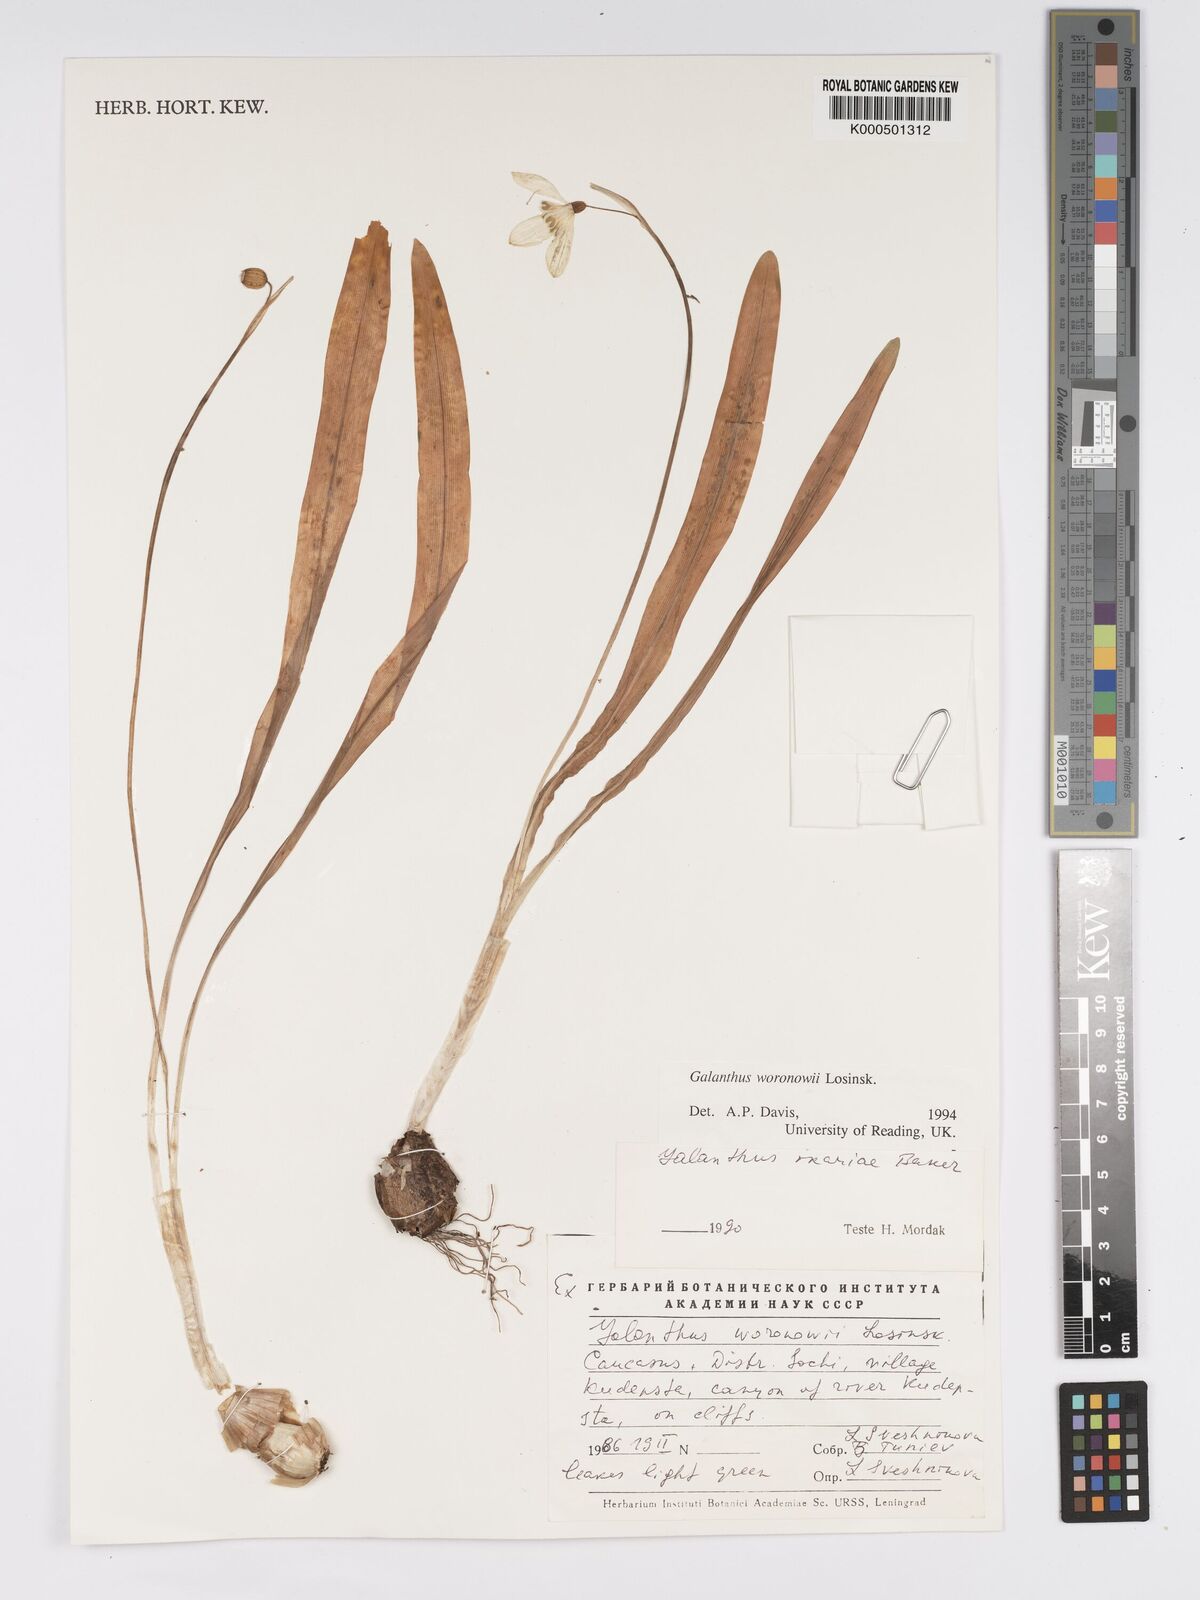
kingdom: Plantae
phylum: Tracheophyta
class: Liliopsida
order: Asparagales
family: Amaryllidaceae
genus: Galanthus
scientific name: Galanthus woronowii
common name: Green snowdrop
